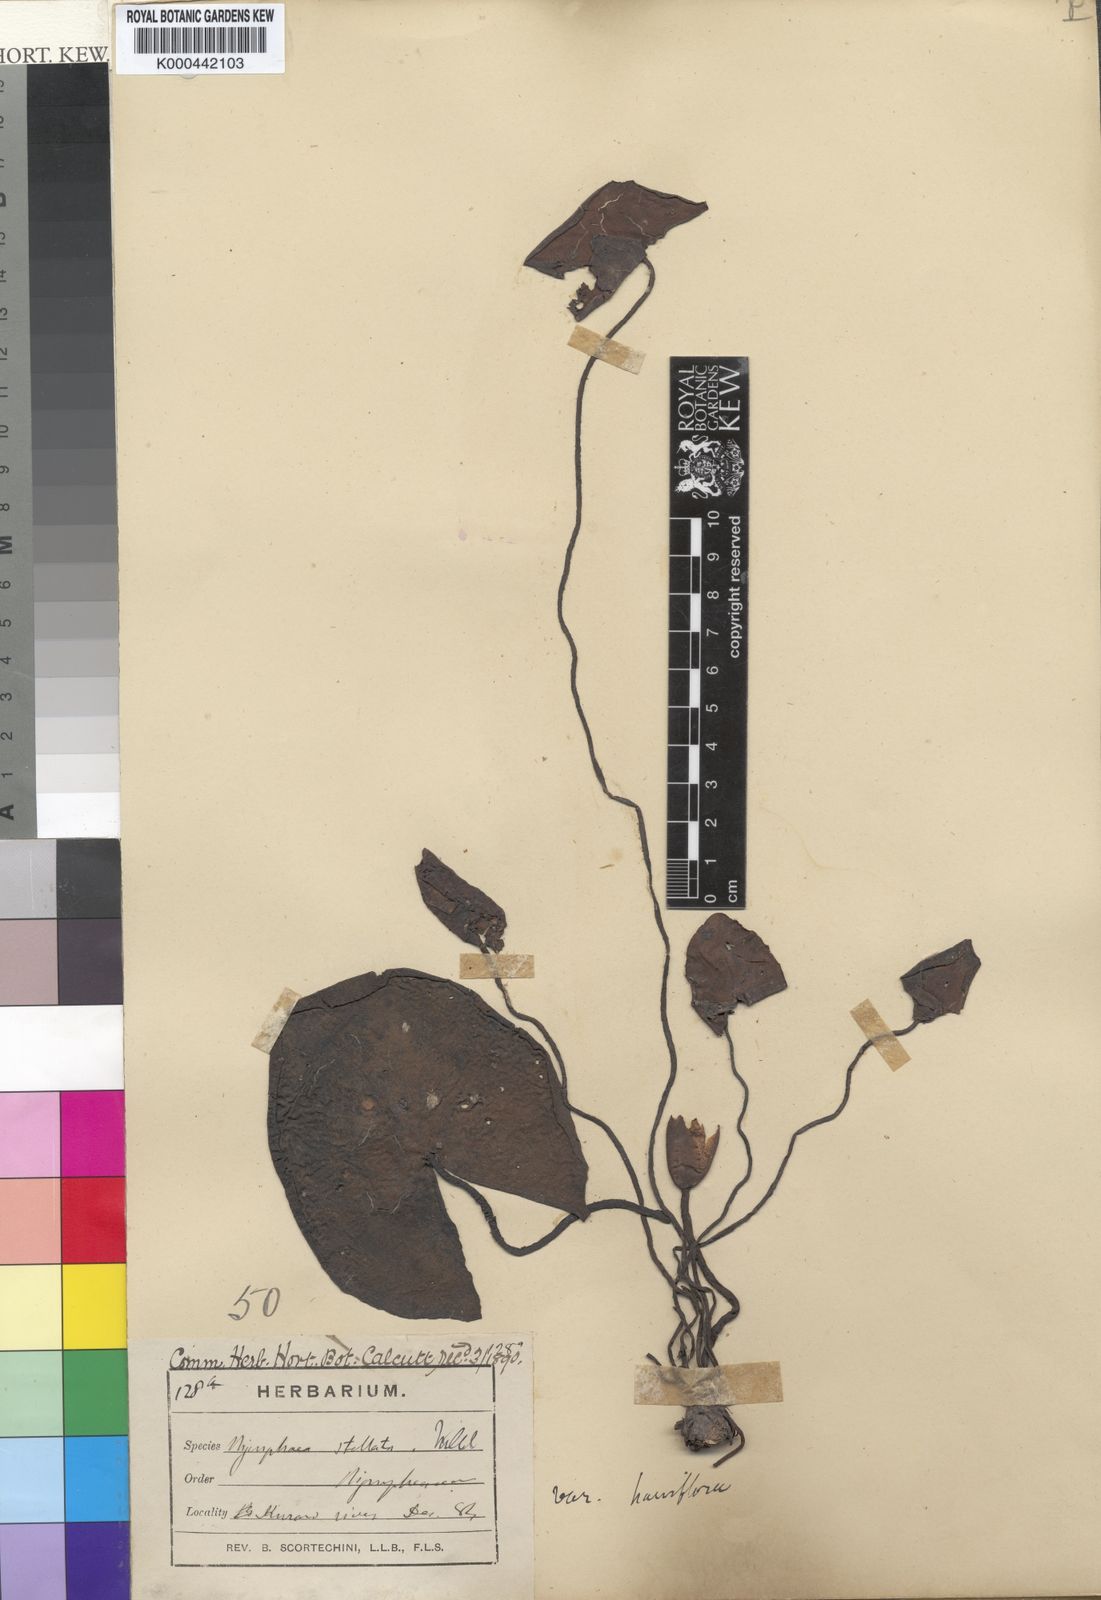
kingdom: Plantae
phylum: Tracheophyta
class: Magnoliopsida
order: Nymphaeales
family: Nymphaeaceae
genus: Nymphaea
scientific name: Nymphaea nouchali
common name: Blue lotus
